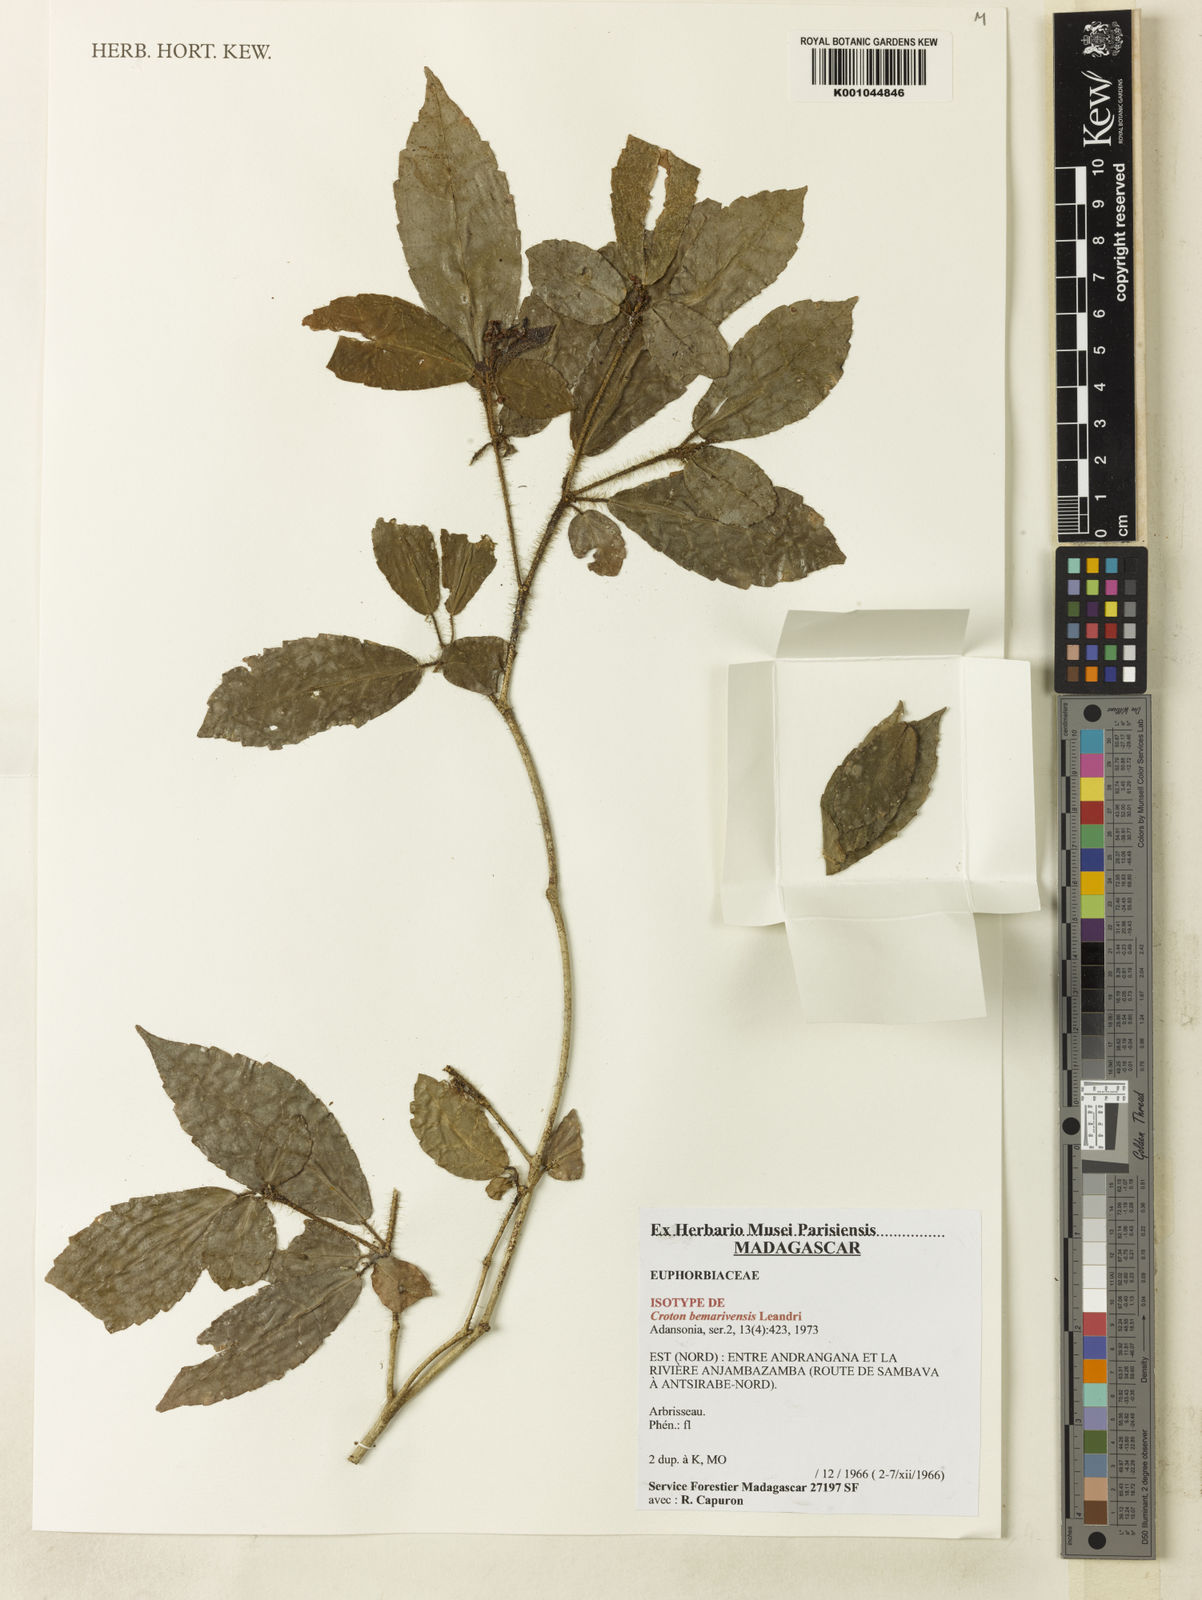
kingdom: Plantae
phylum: Tracheophyta
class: Magnoliopsida
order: Malpighiales
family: Euphorbiaceae
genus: Croton
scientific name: Croton bemarivensis
